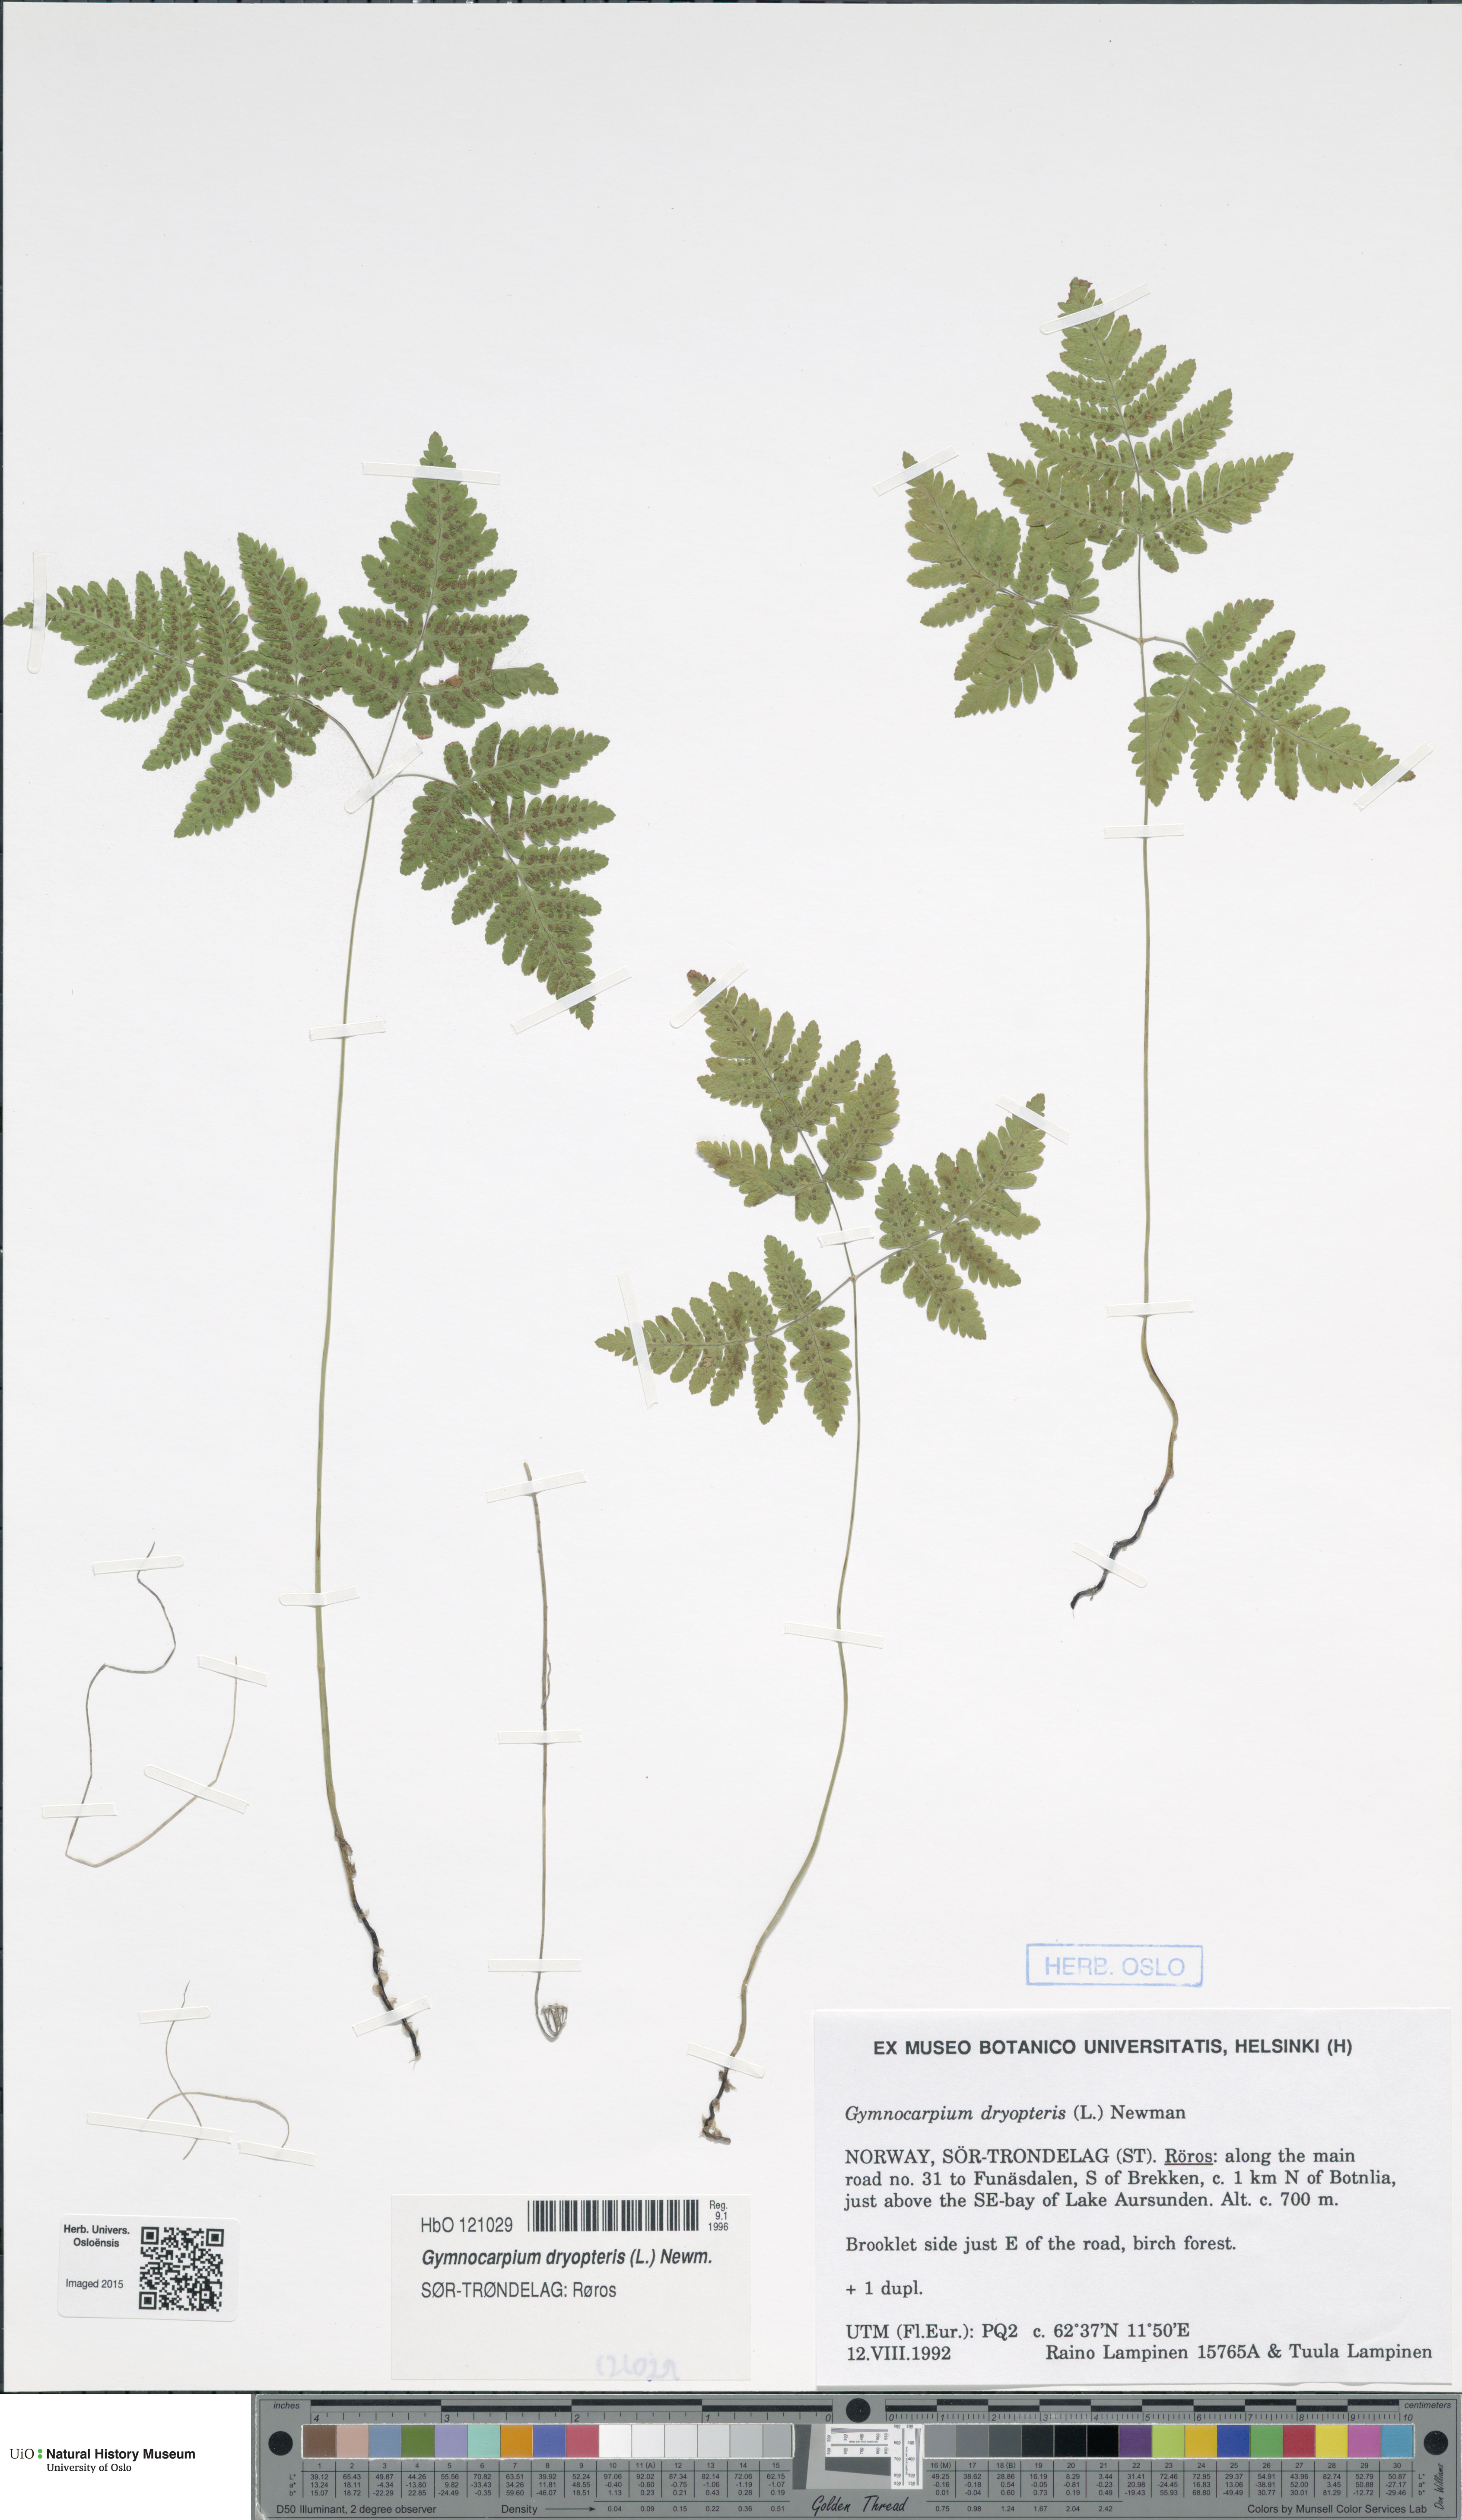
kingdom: Plantae
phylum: Tracheophyta
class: Polypodiopsida
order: Polypodiales
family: Cystopteridaceae
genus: Gymnocarpium
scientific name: Gymnocarpium dryopteris
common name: Oak fern
